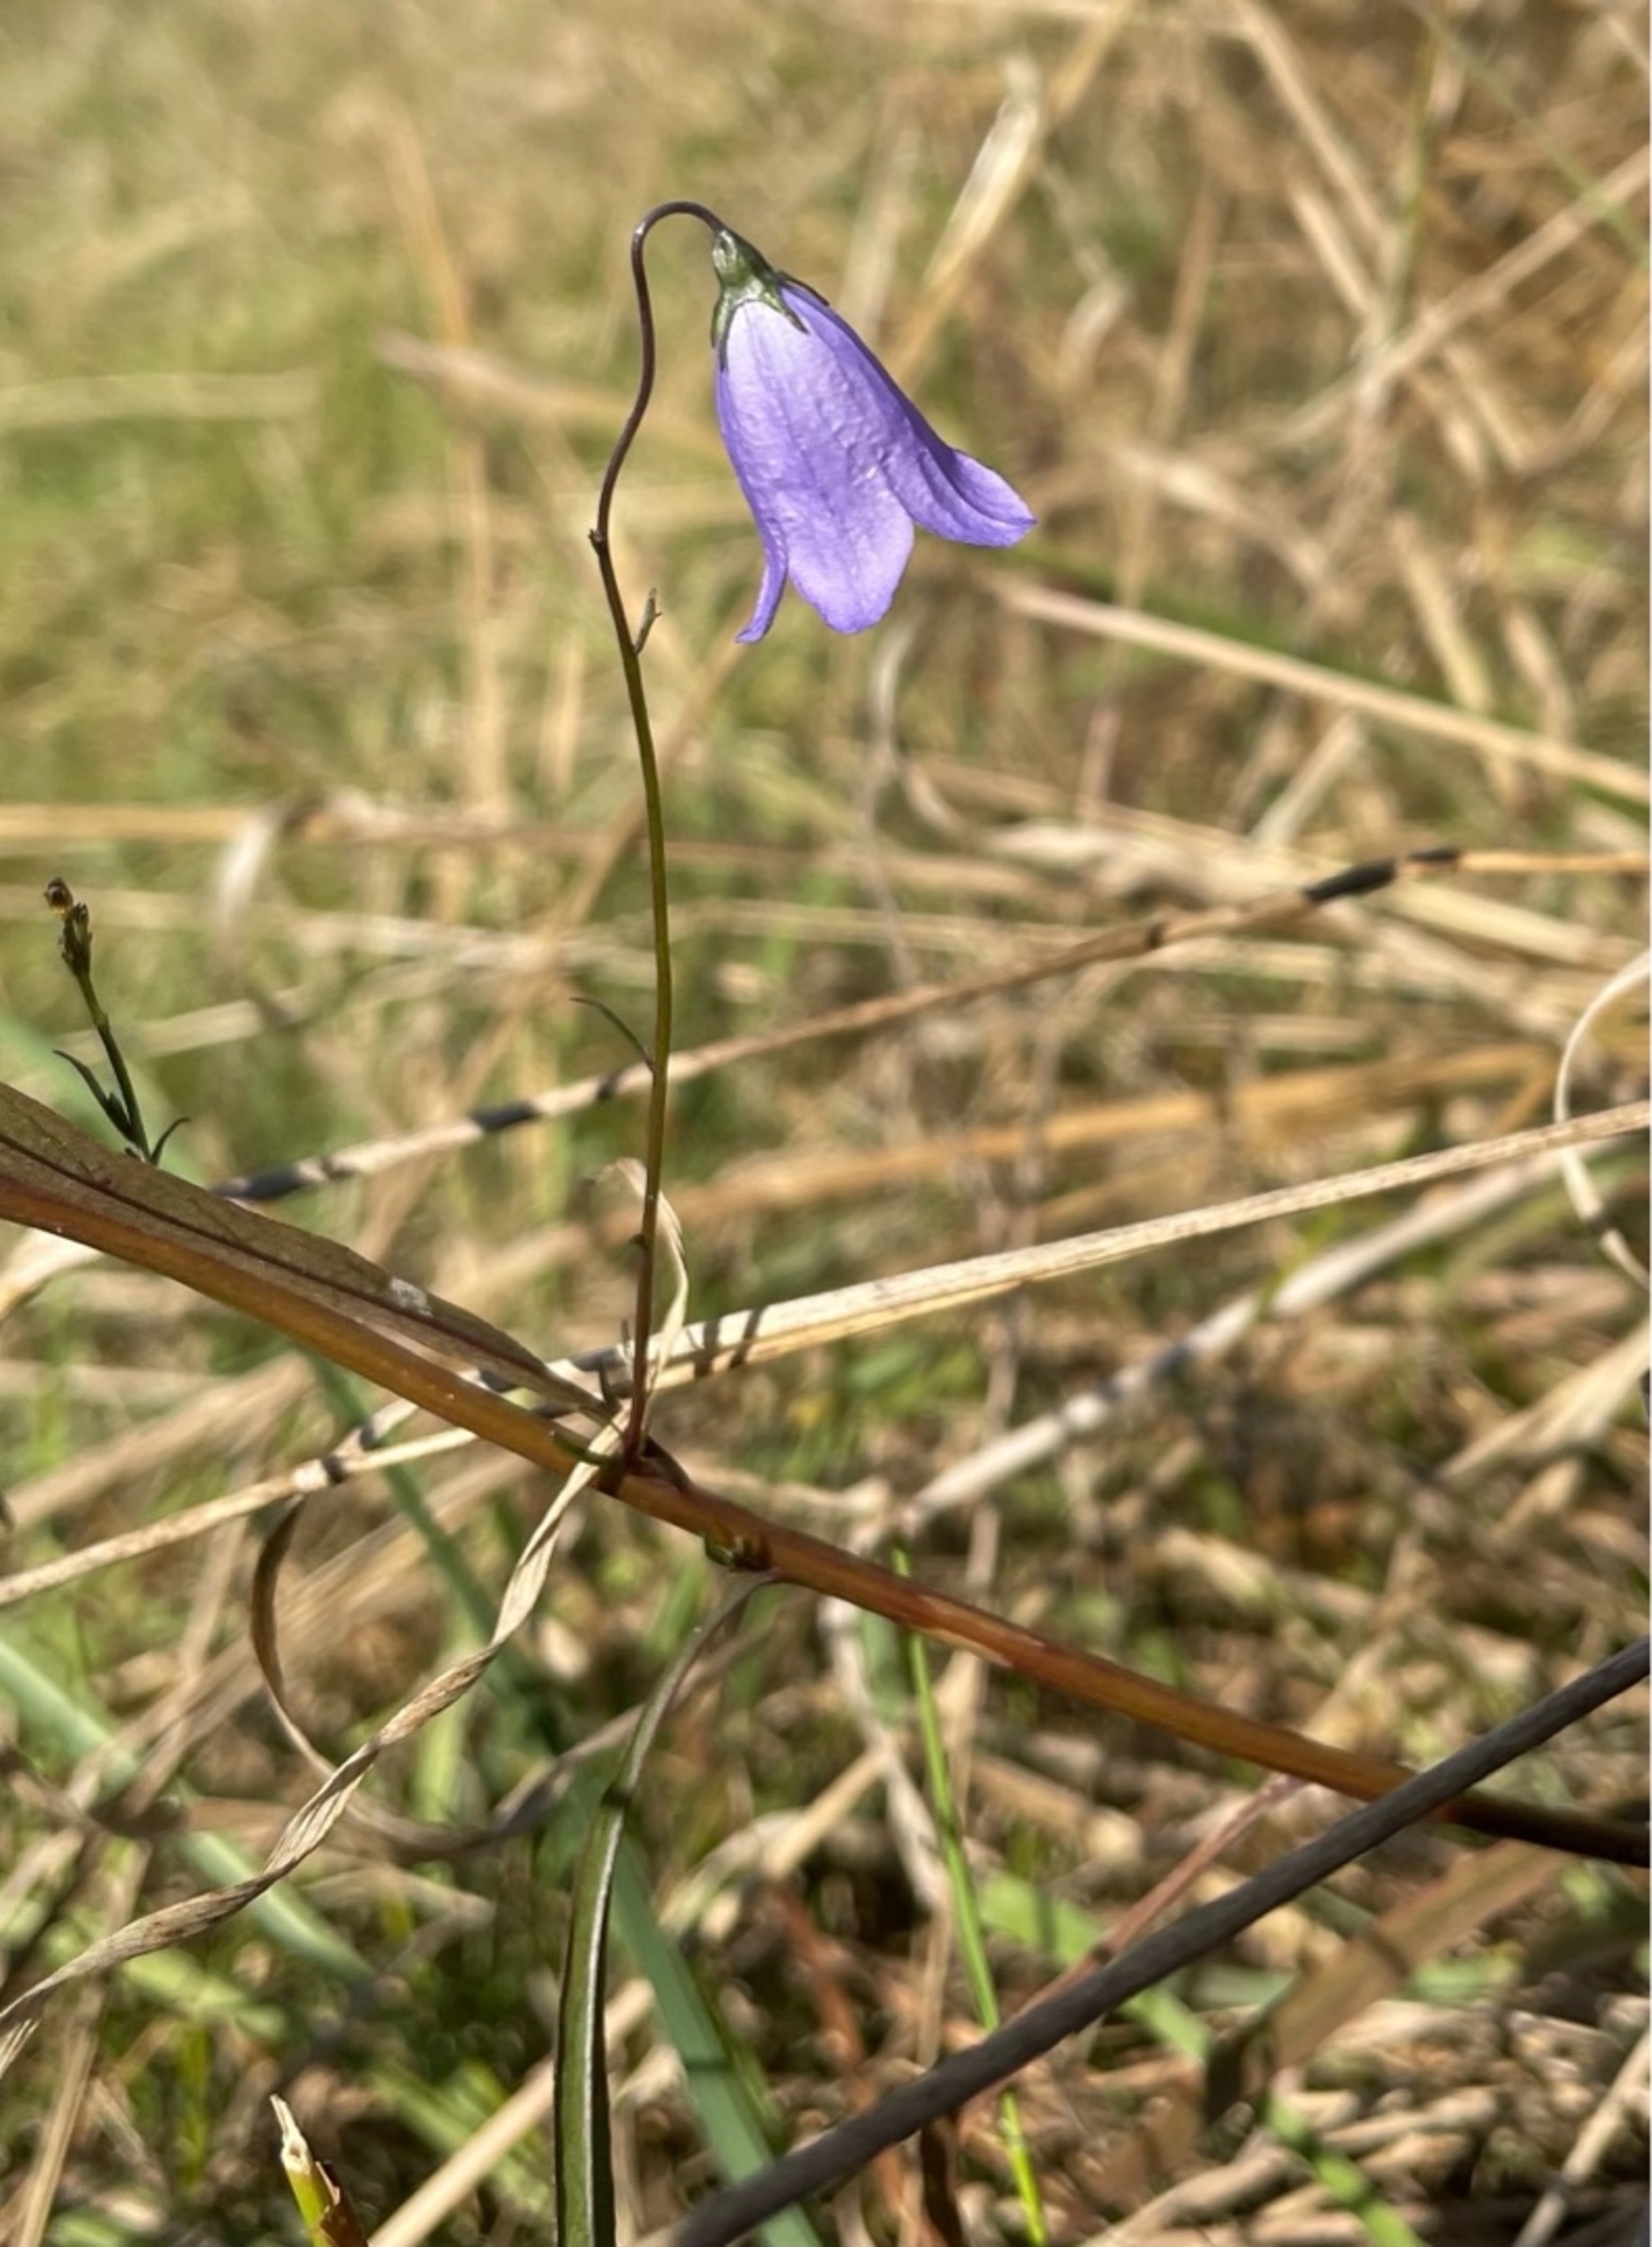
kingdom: Plantae
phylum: Tracheophyta
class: Magnoliopsida
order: Asterales
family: Campanulaceae
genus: Campanula
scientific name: Campanula rotundifolia
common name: Liden klokke
